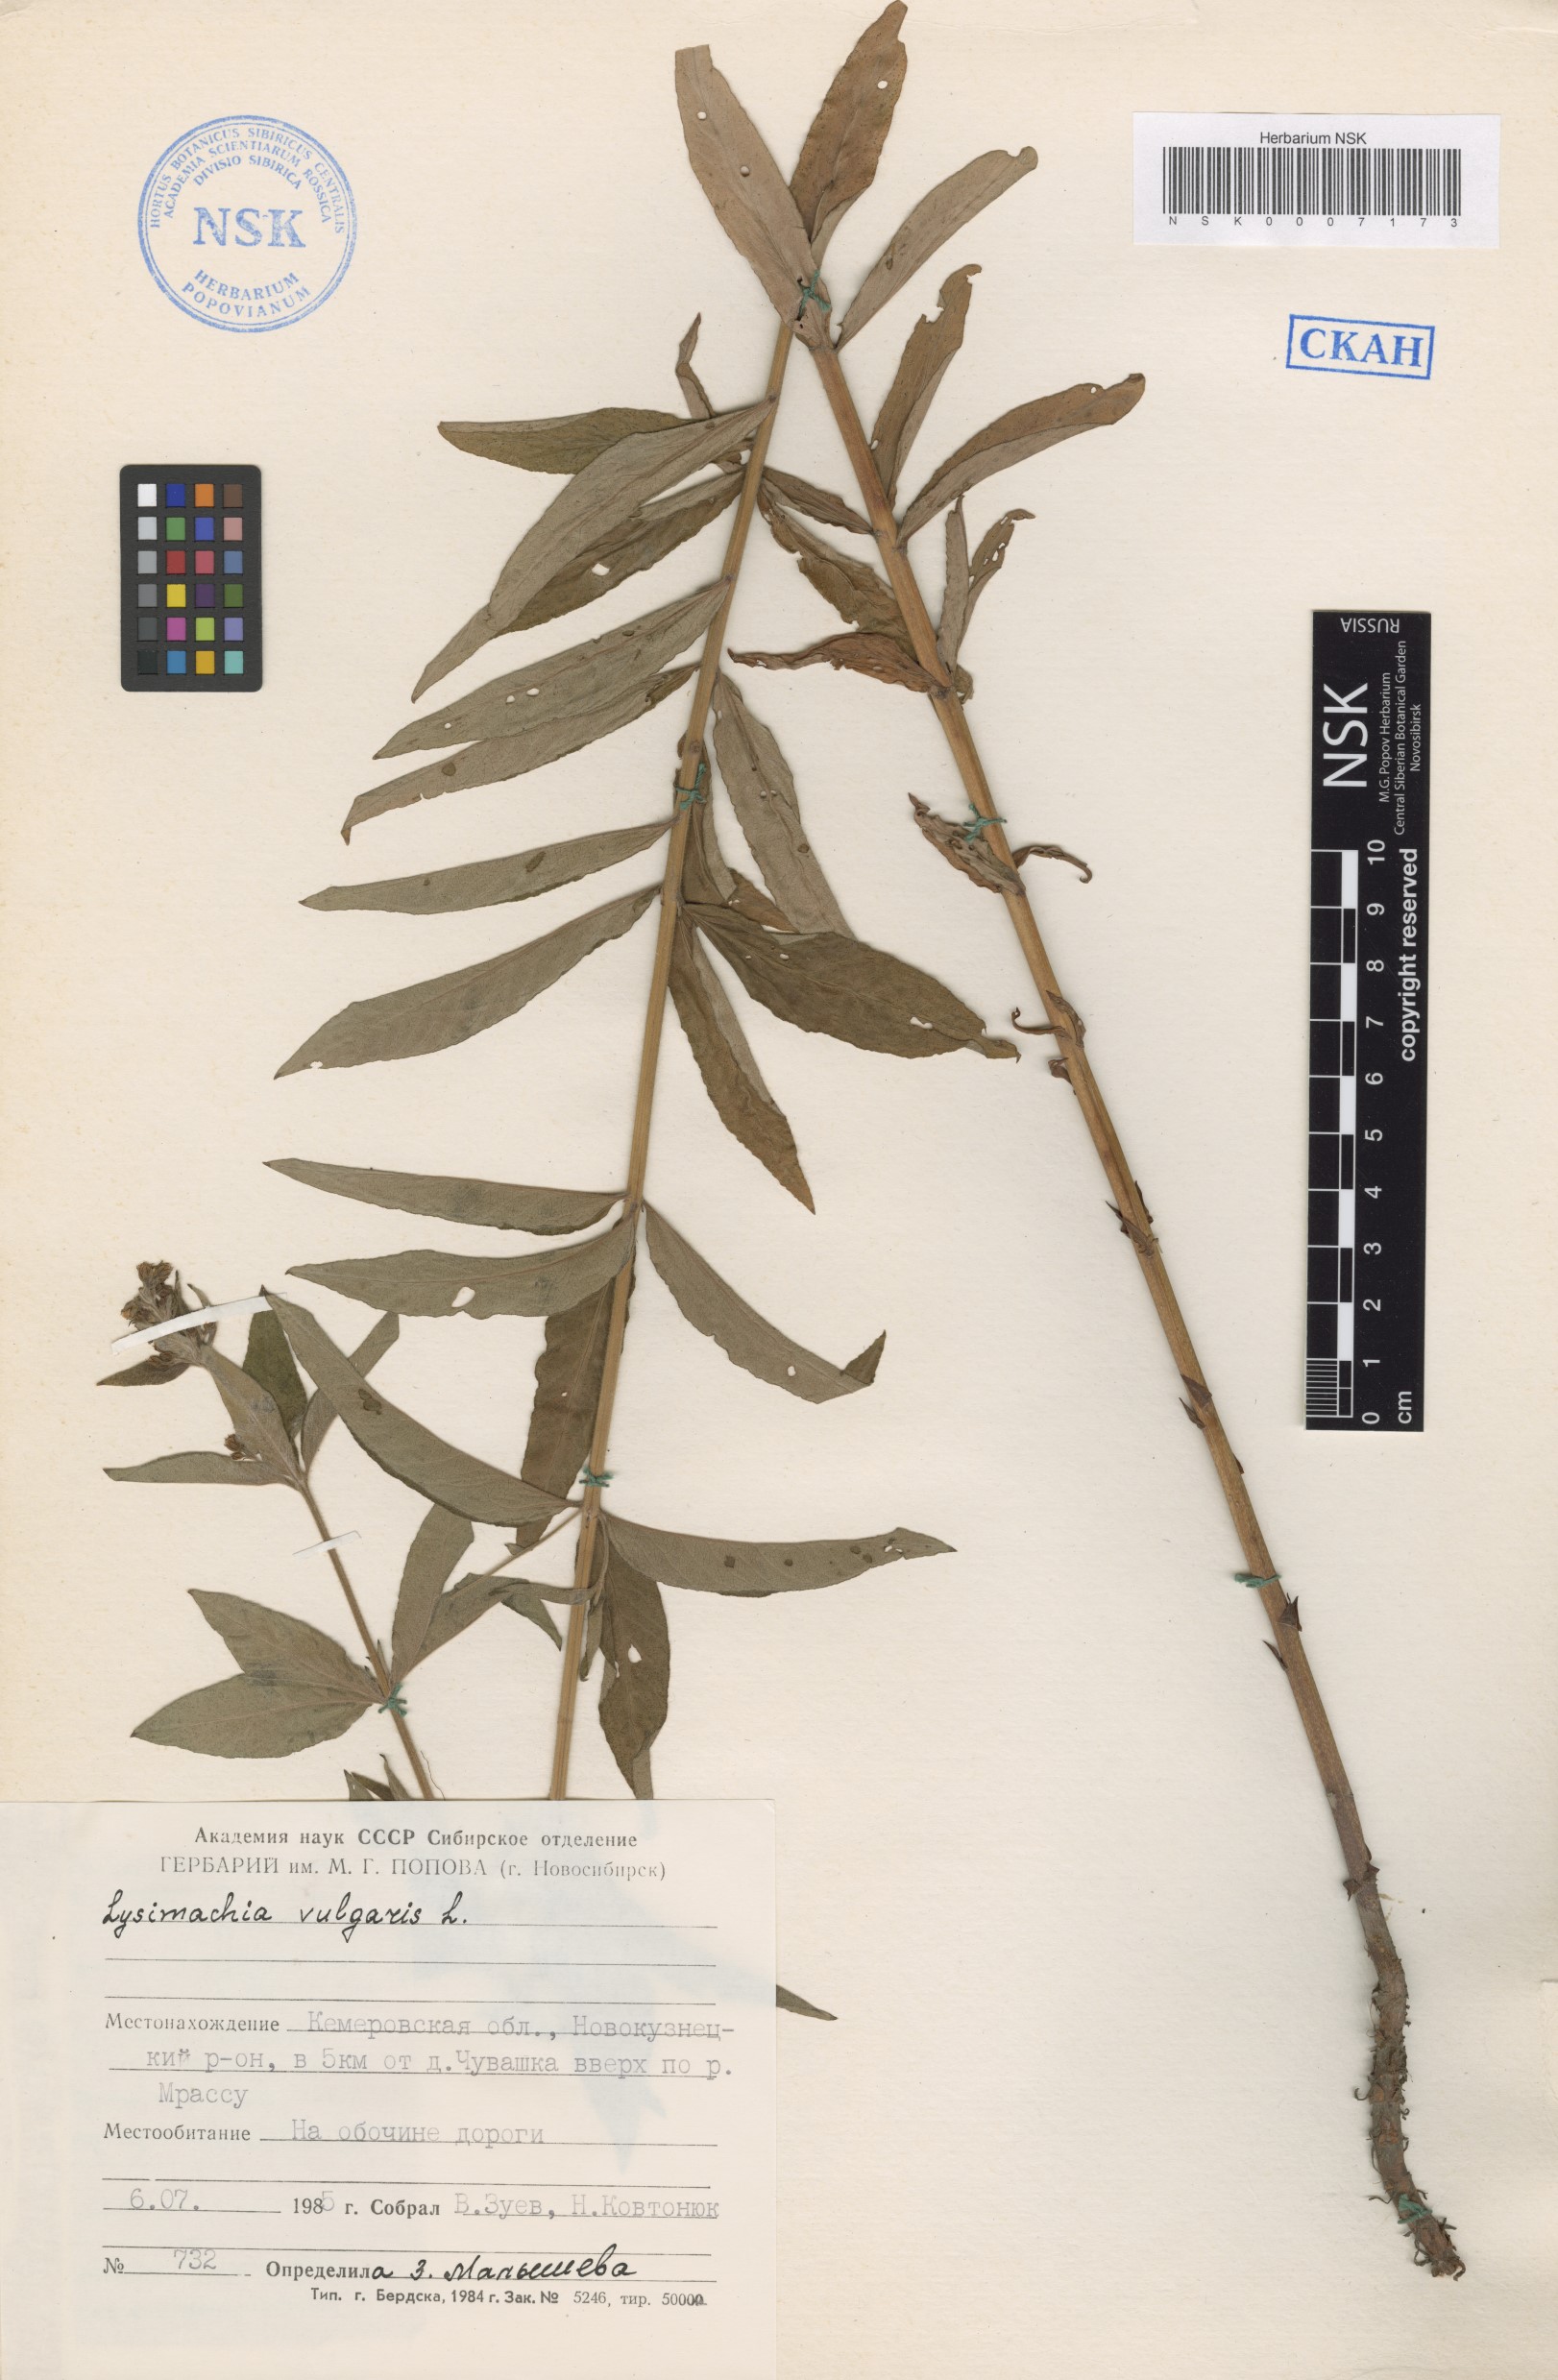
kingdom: Plantae
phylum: Tracheophyta
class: Magnoliopsida
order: Ericales
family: Primulaceae
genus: Lysimachia
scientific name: Lysimachia vulgaris
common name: Yellow loosestrife
